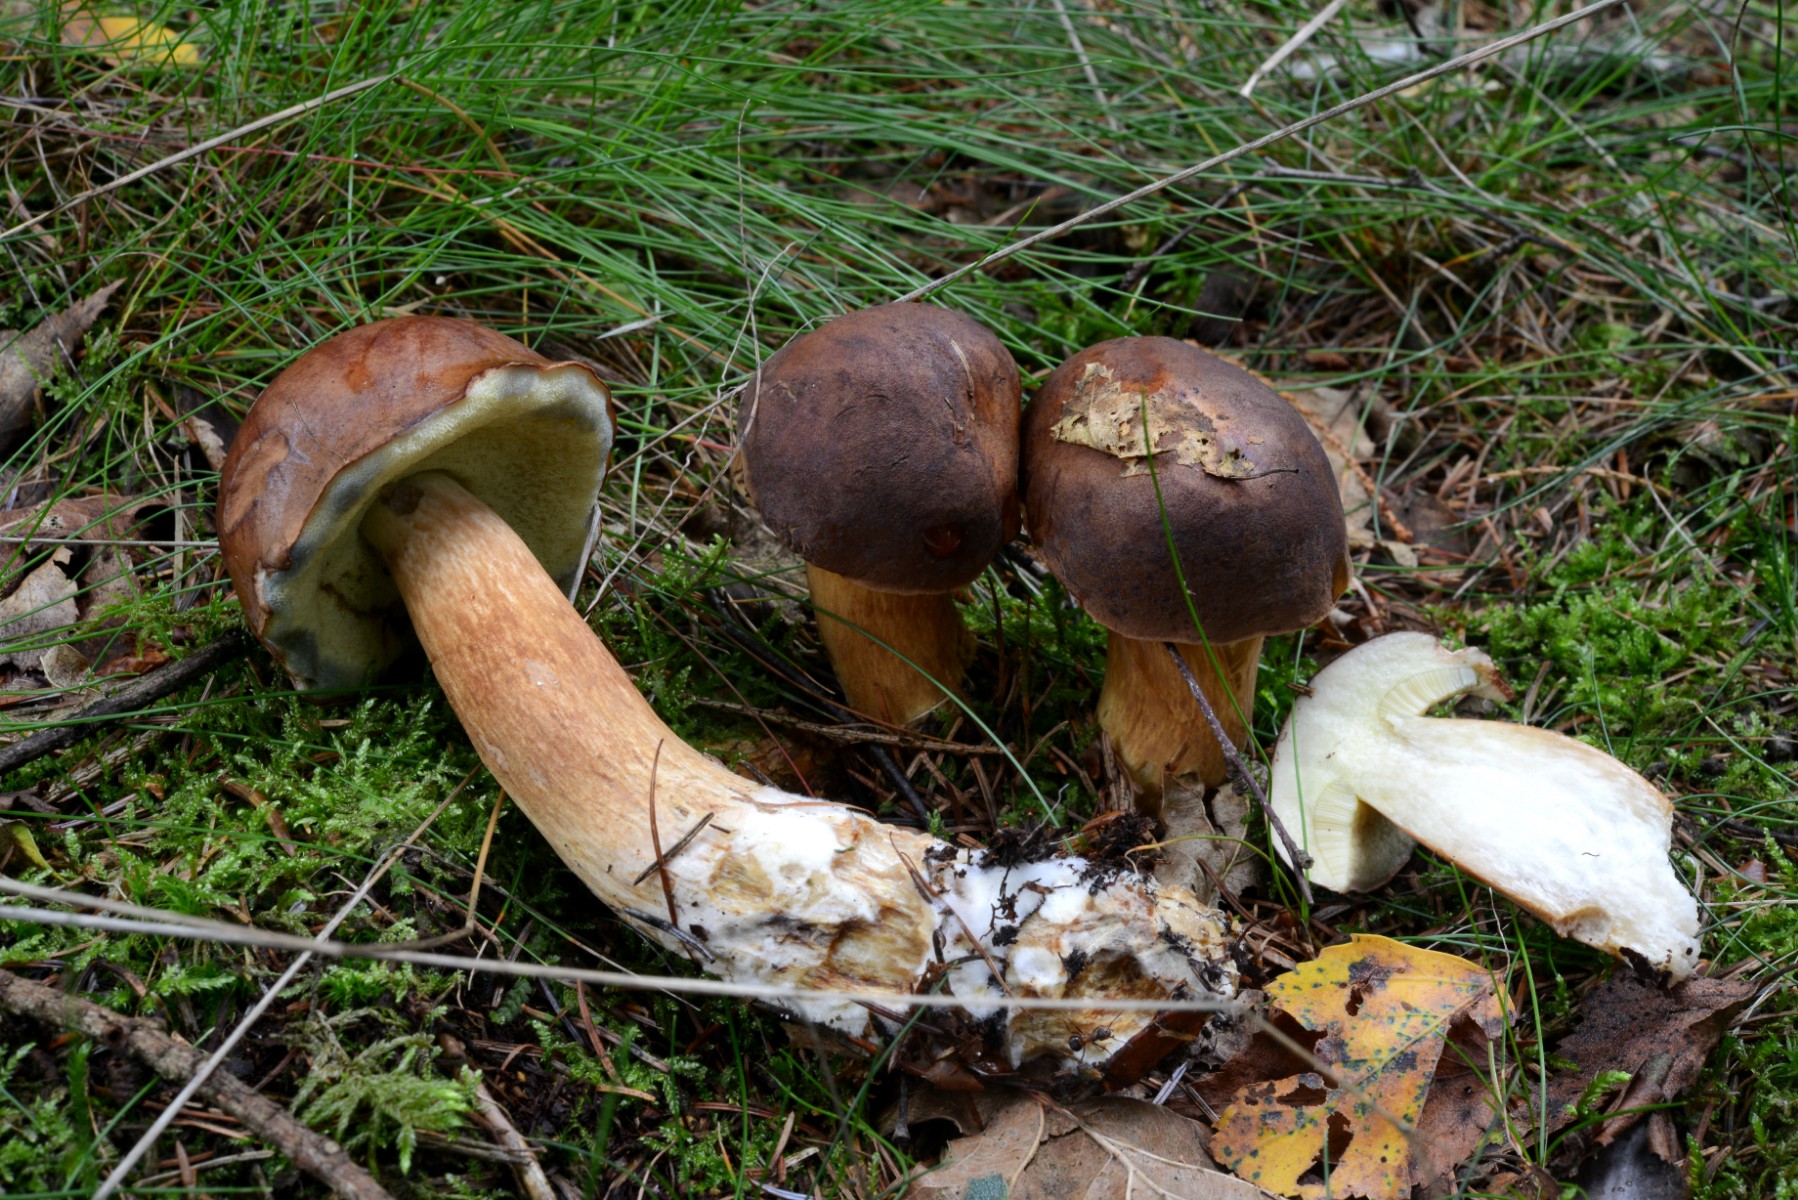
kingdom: Fungi
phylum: Basidiomycota
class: Agaricomycetes
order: Boletales
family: Boletaceae
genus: Imleria
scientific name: Imleria badia
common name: brunstokket rørhat
